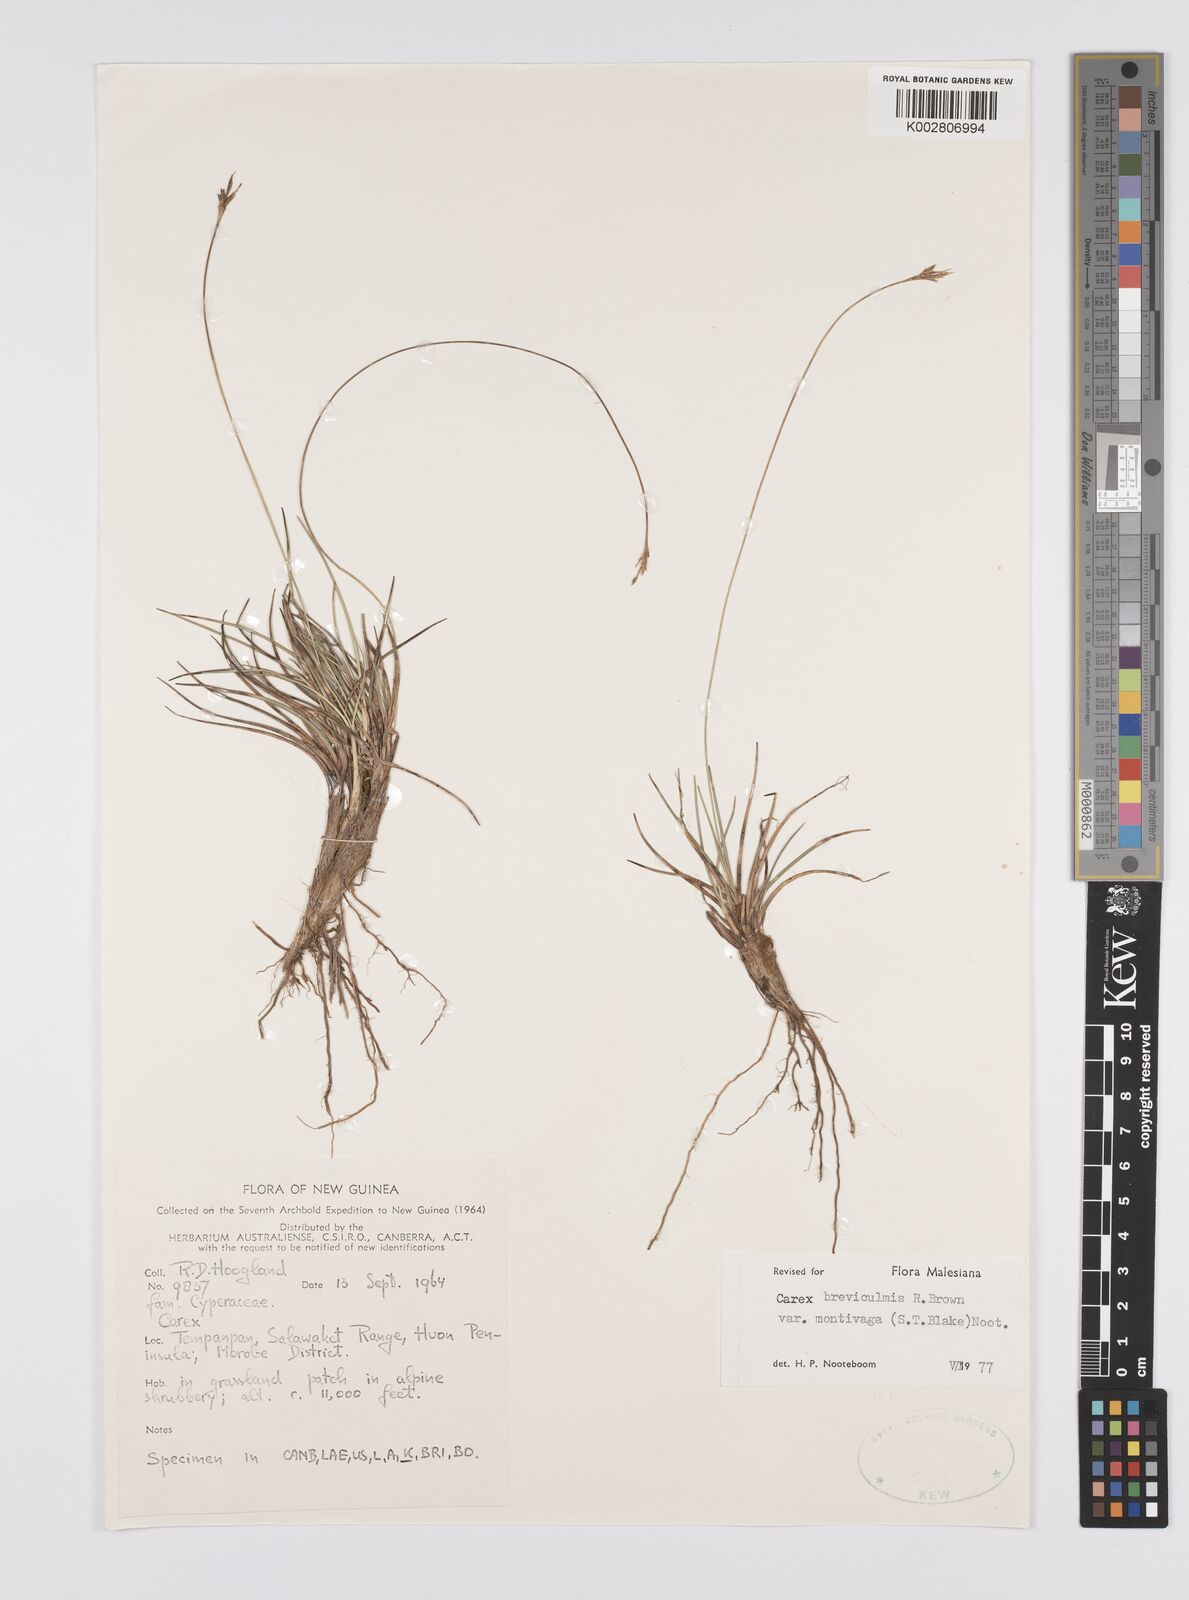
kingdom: Plantae
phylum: Tracheophyta
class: Liliopsida
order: Poales
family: Cyperaceae
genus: Carex
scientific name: Carex breviculmis
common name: Asian shortstem sedge
